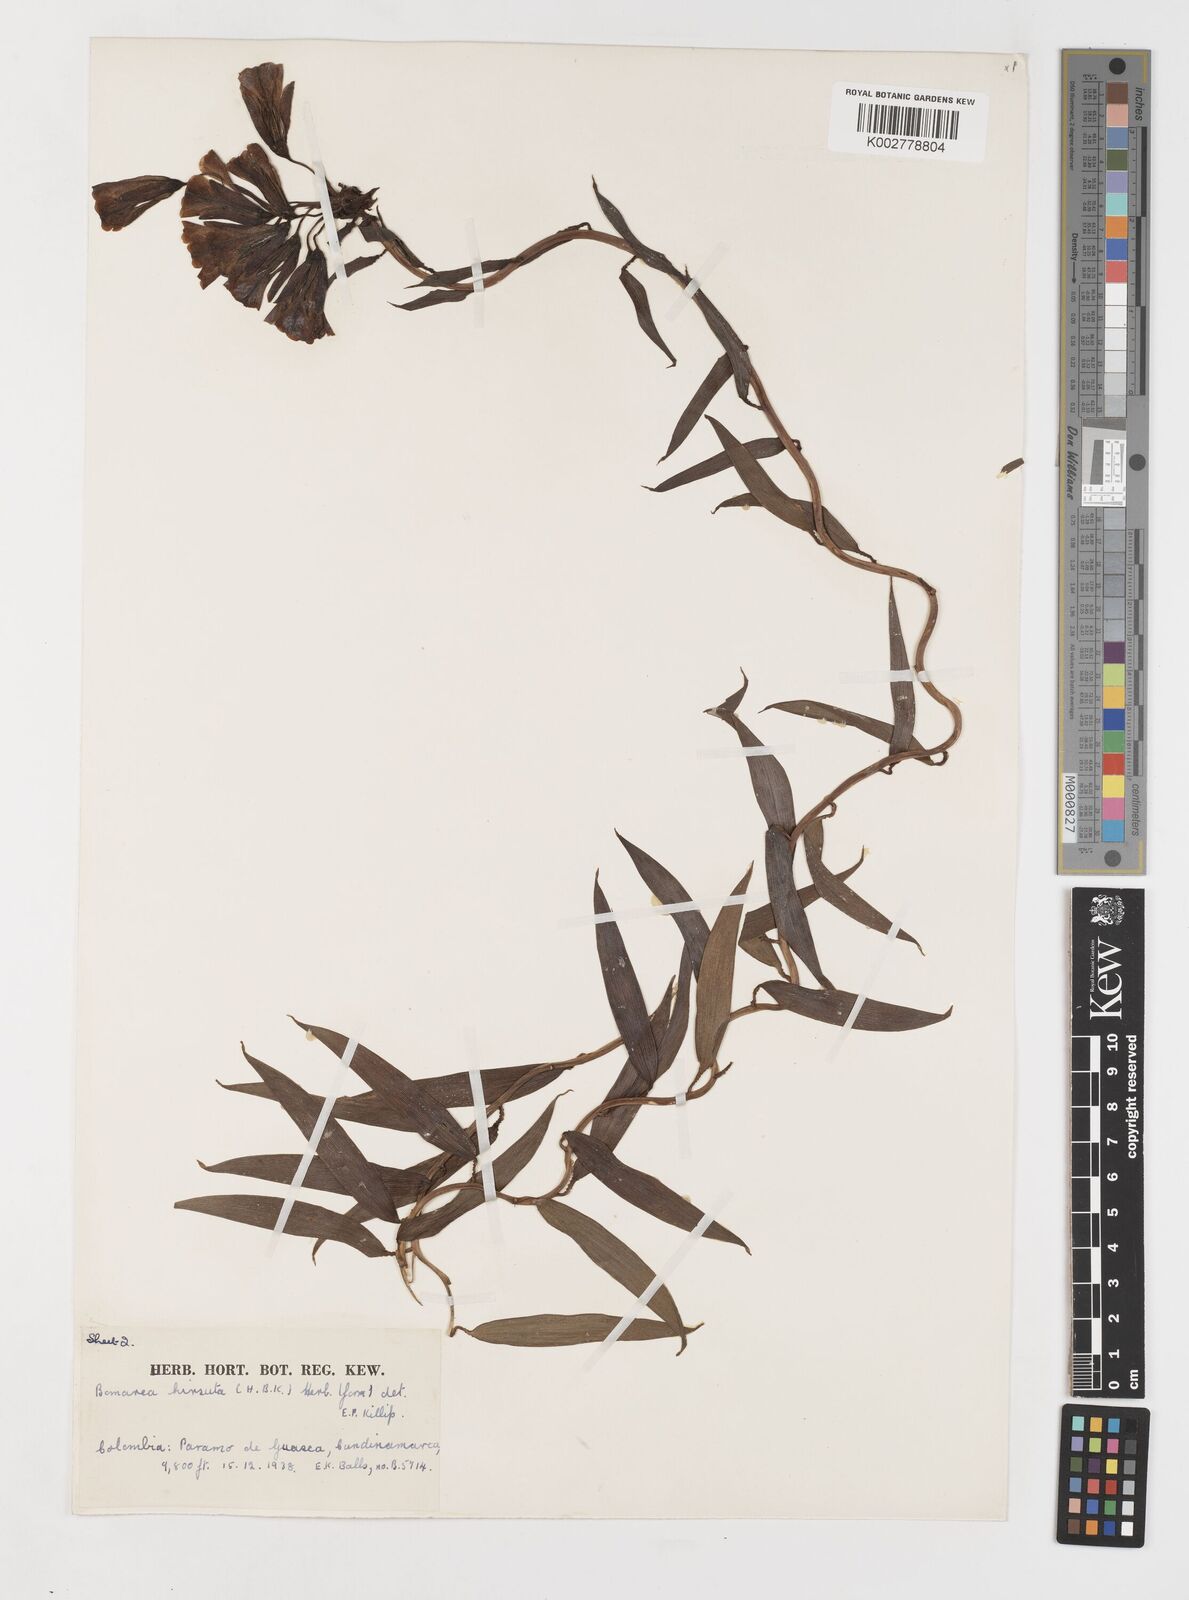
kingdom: Plantae
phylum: Tracheophyta
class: Liliopsida
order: Liliales
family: Alstroemeriaceae
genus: Bomarea
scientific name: Bomarea hirsuta
